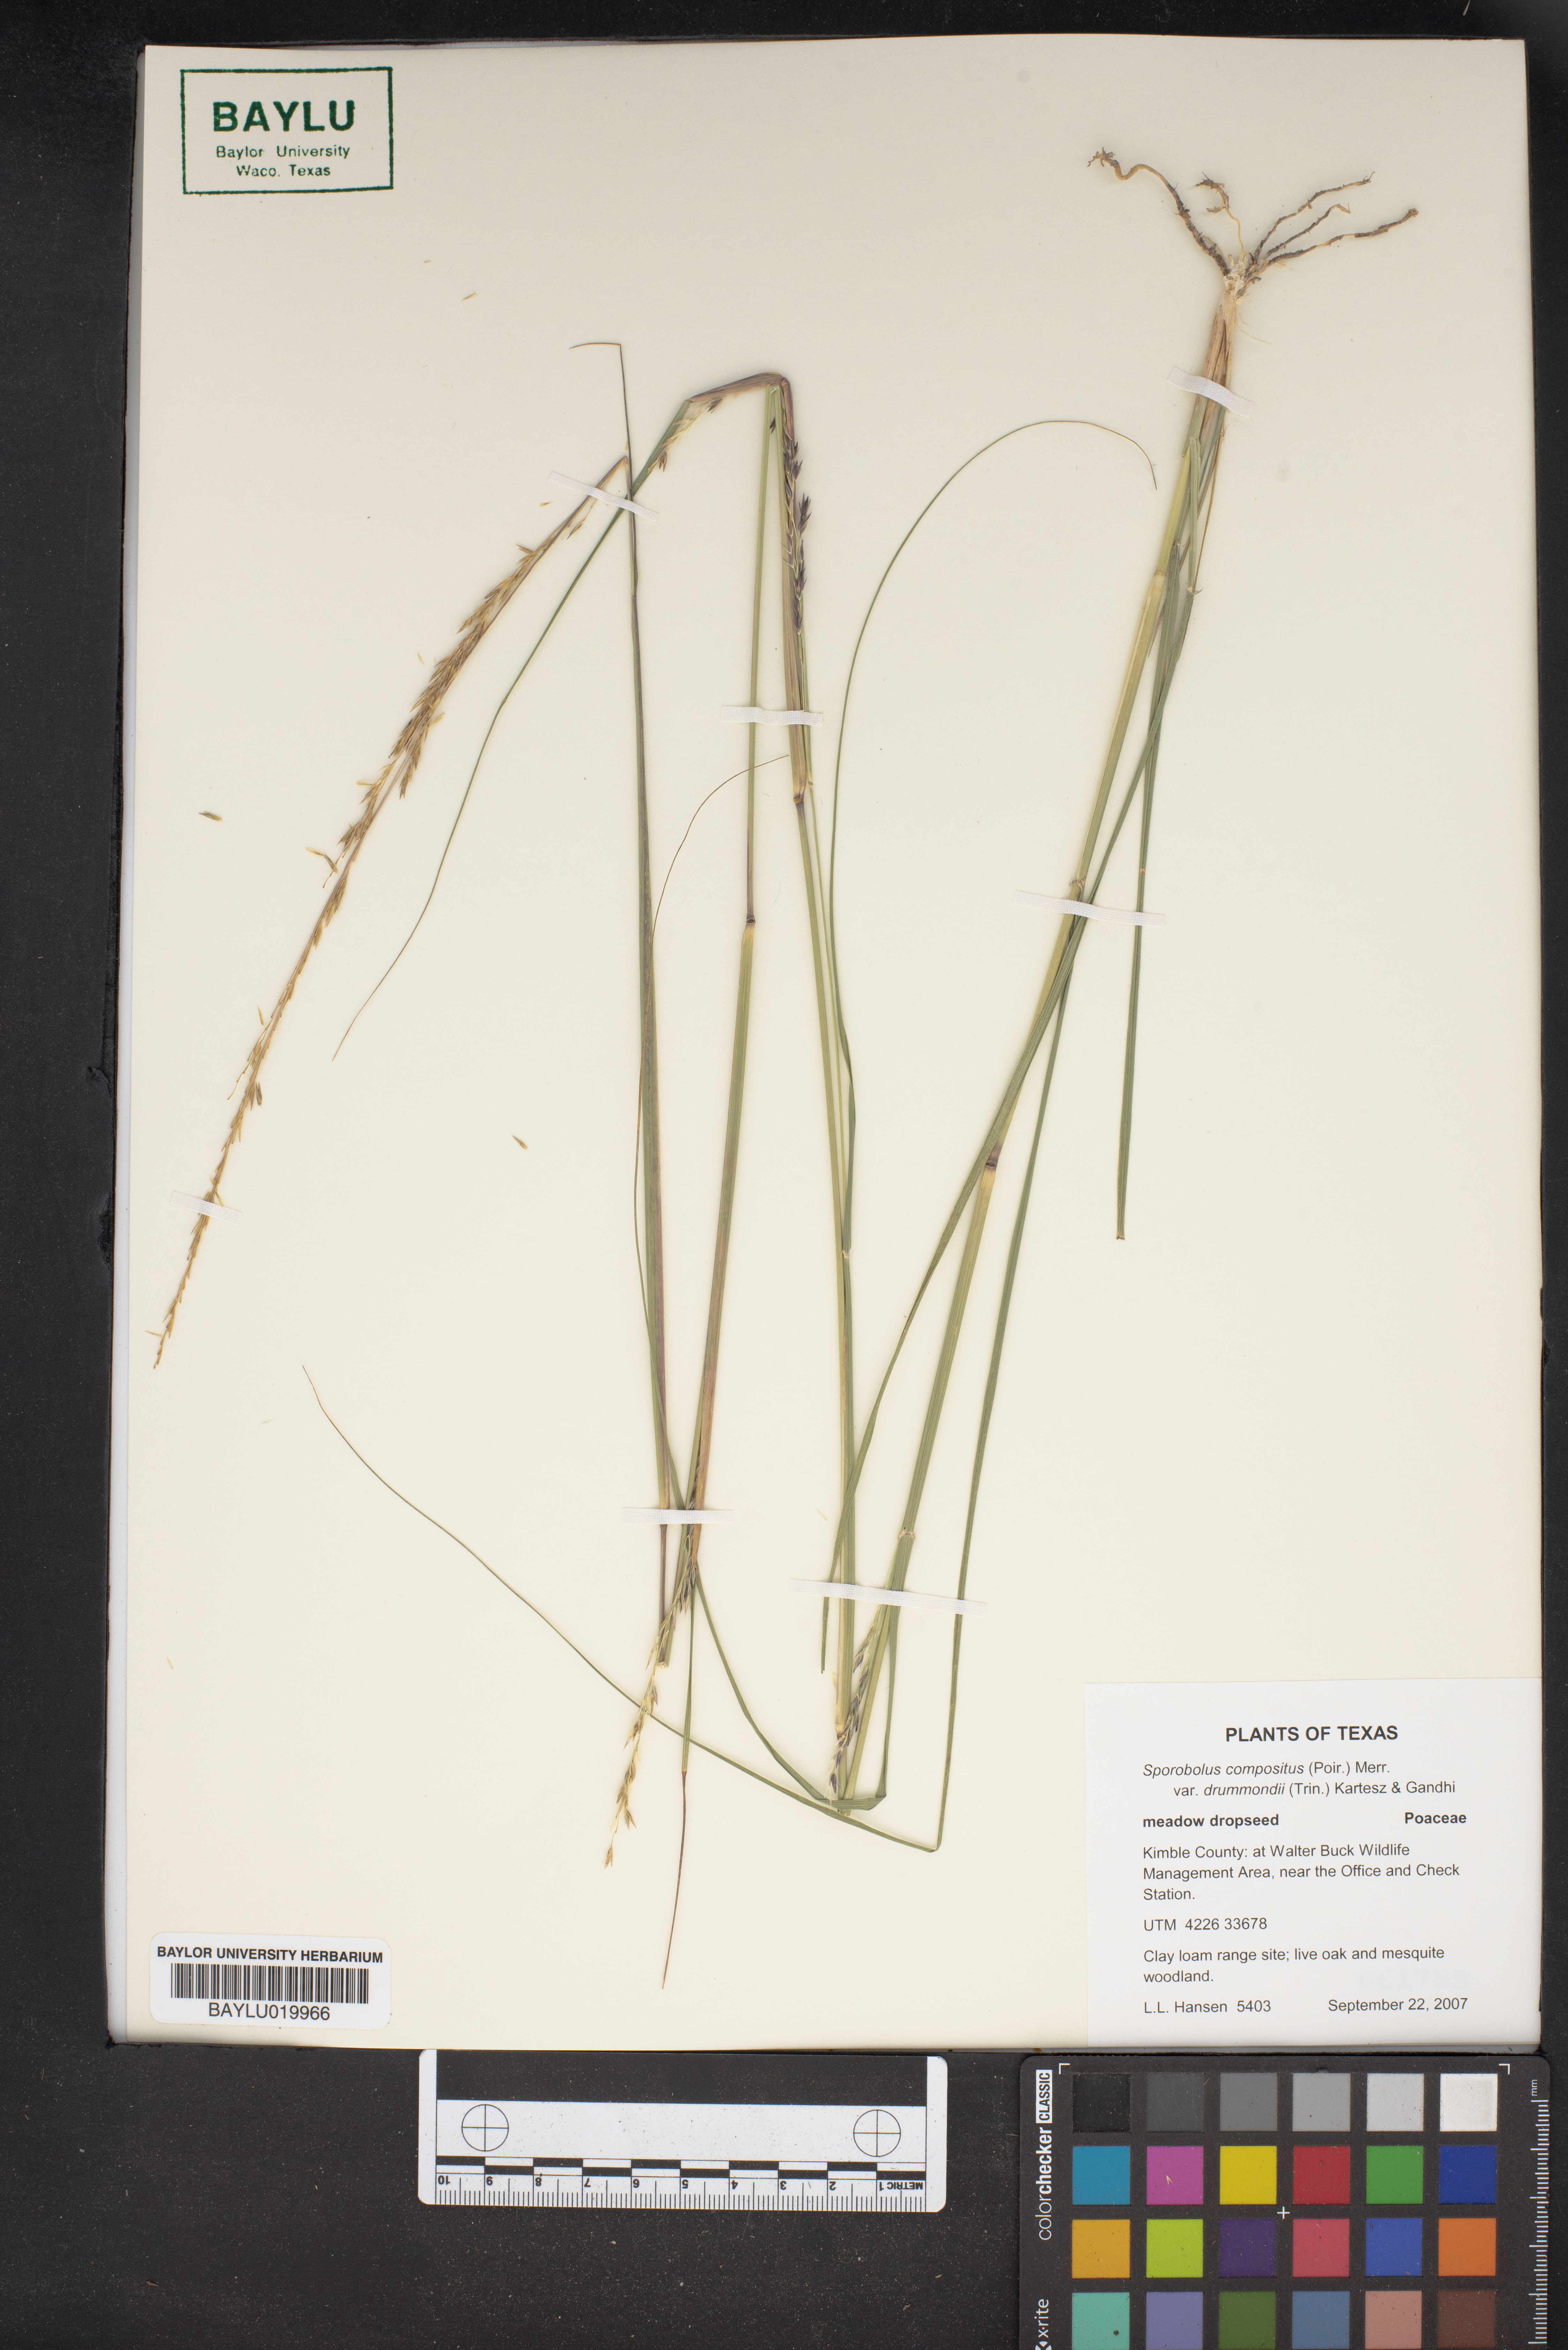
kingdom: Plantae
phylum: Tracheophyta
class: Liliopsida
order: Poales
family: Poaceae
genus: Sporobolus
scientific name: Sporobolus compositus
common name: Rough dropseed
